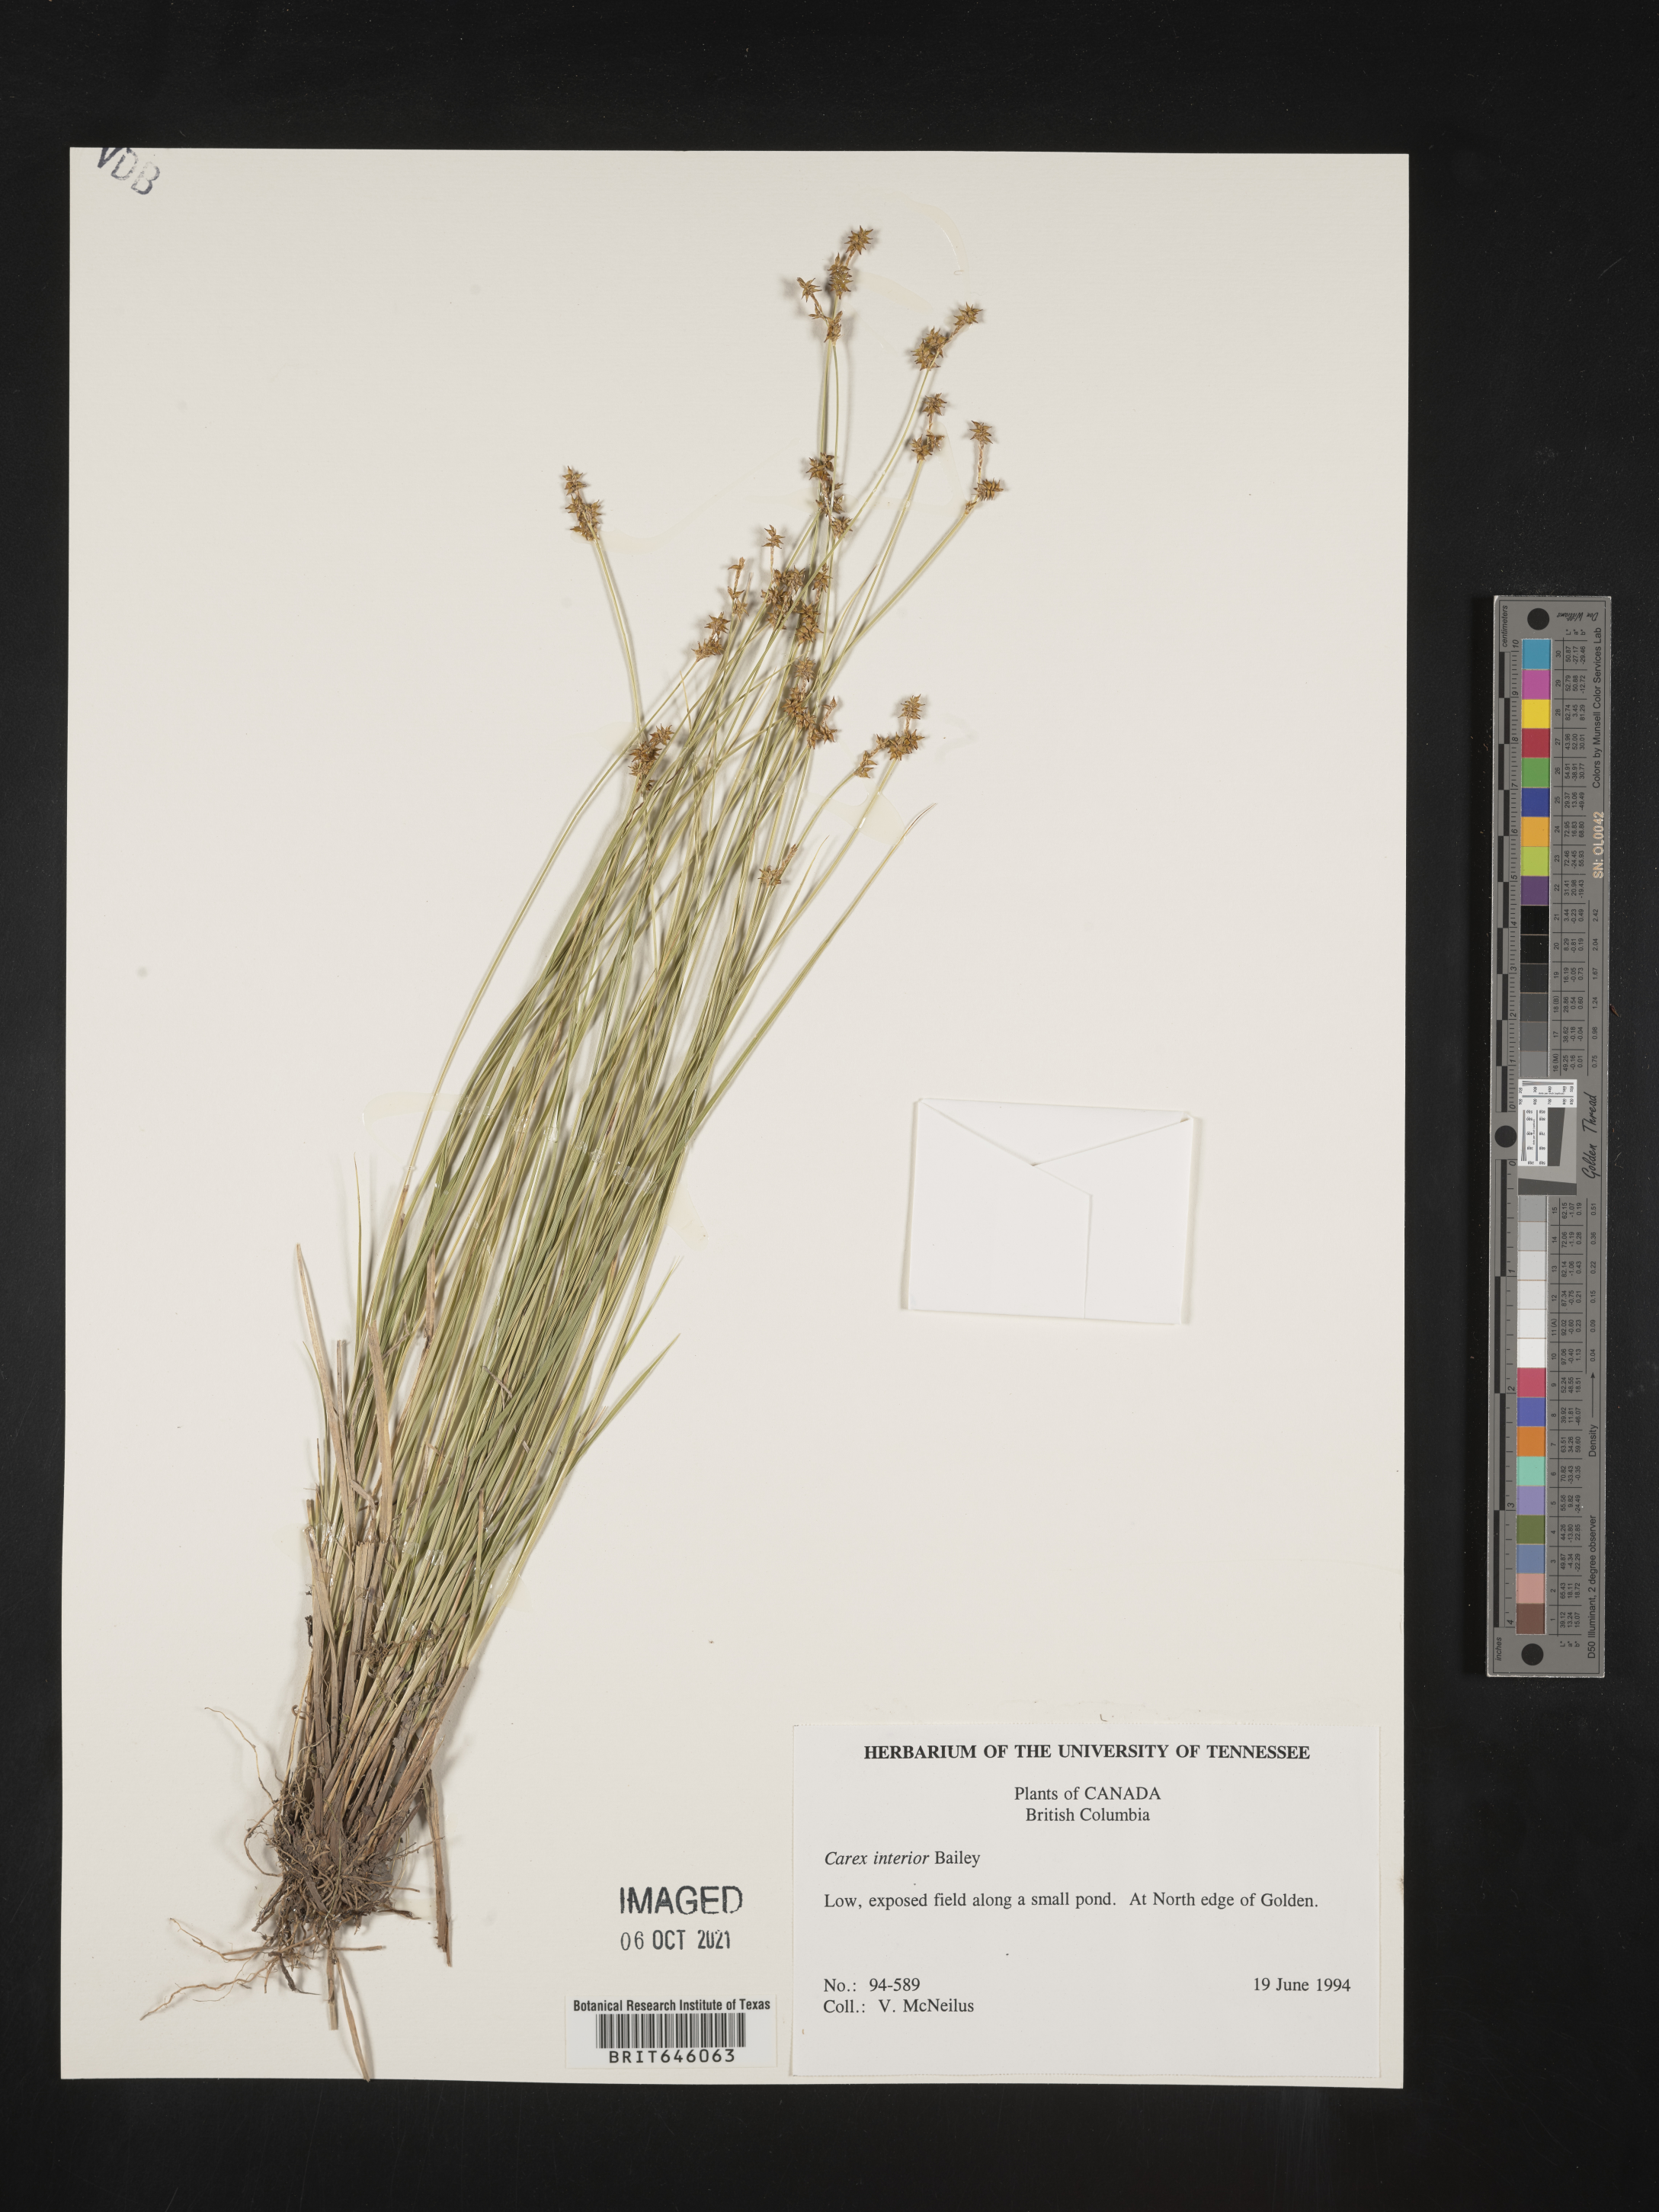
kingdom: Plantae
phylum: Tracheophyta
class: Liliopsida
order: Poales
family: Cyperaceae
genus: Carex
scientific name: Carex interior
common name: Inland sedge
